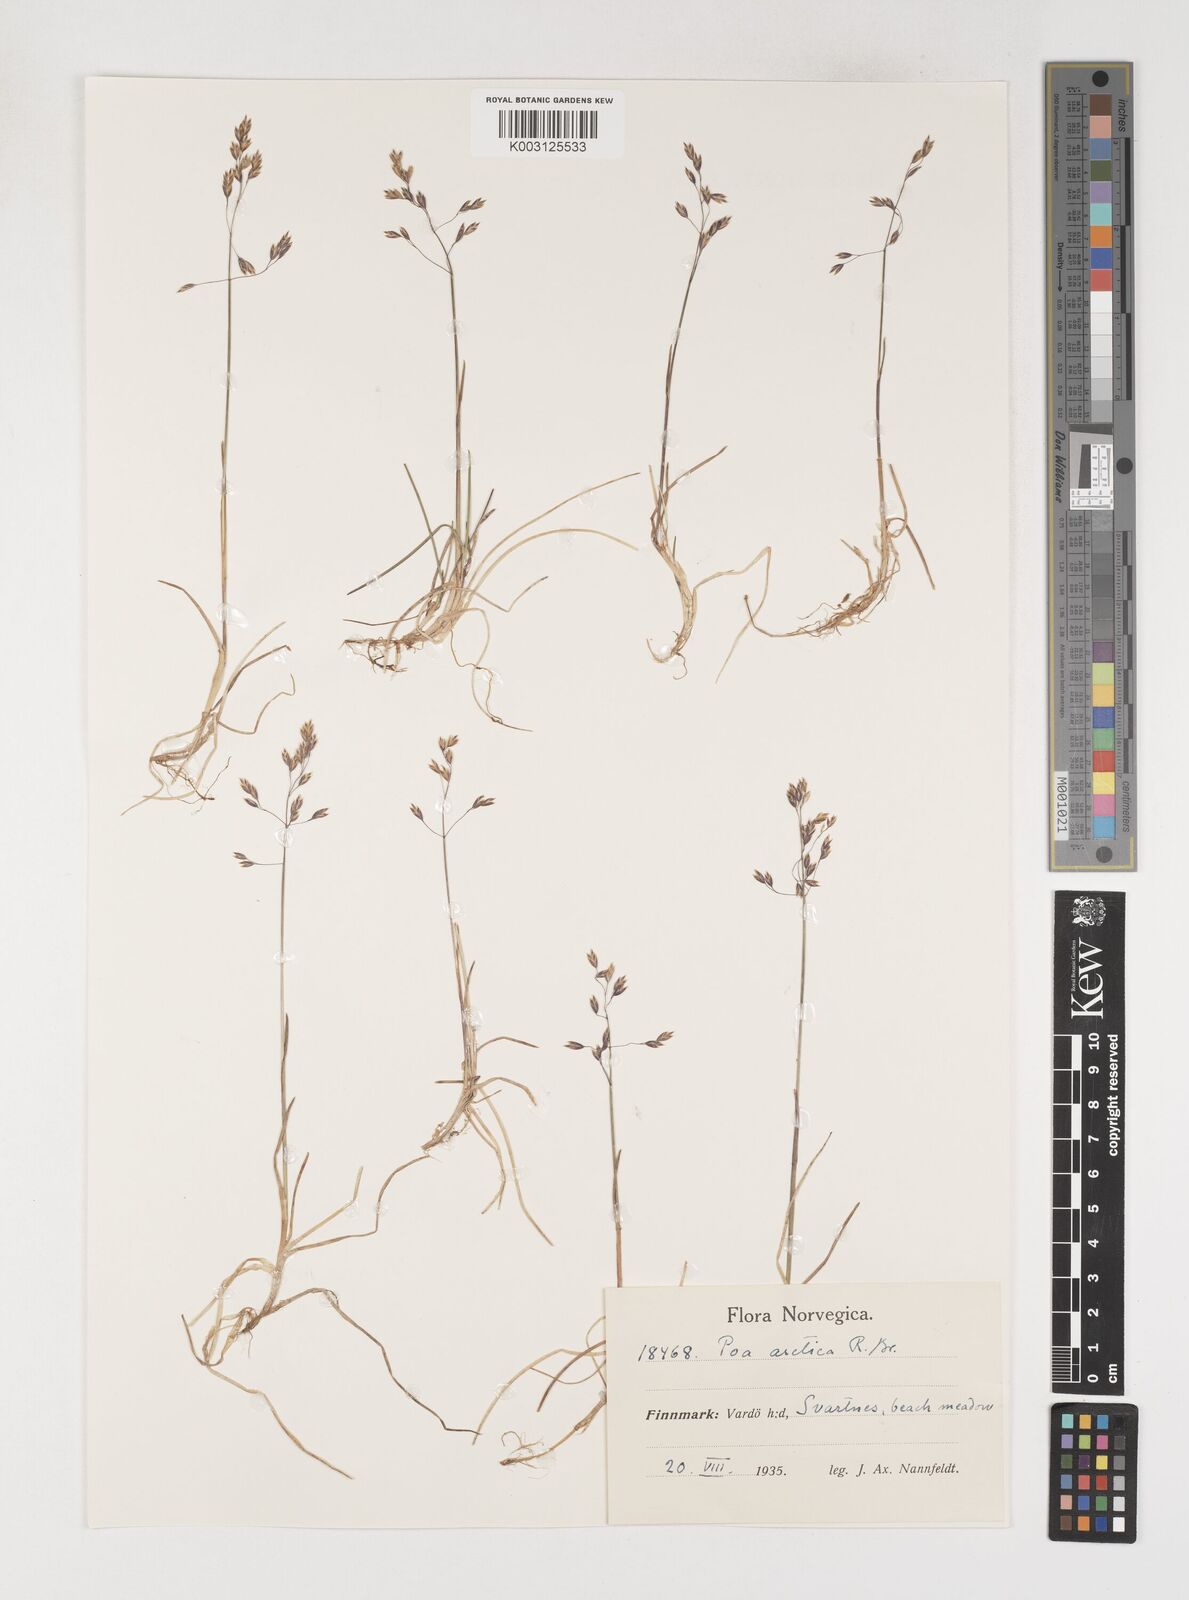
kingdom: Plantae
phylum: Tracheophyta
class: Liliopsida
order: Poales
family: Poaceae
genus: Poa
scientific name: Poa arctica
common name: Arctic bluegrass
